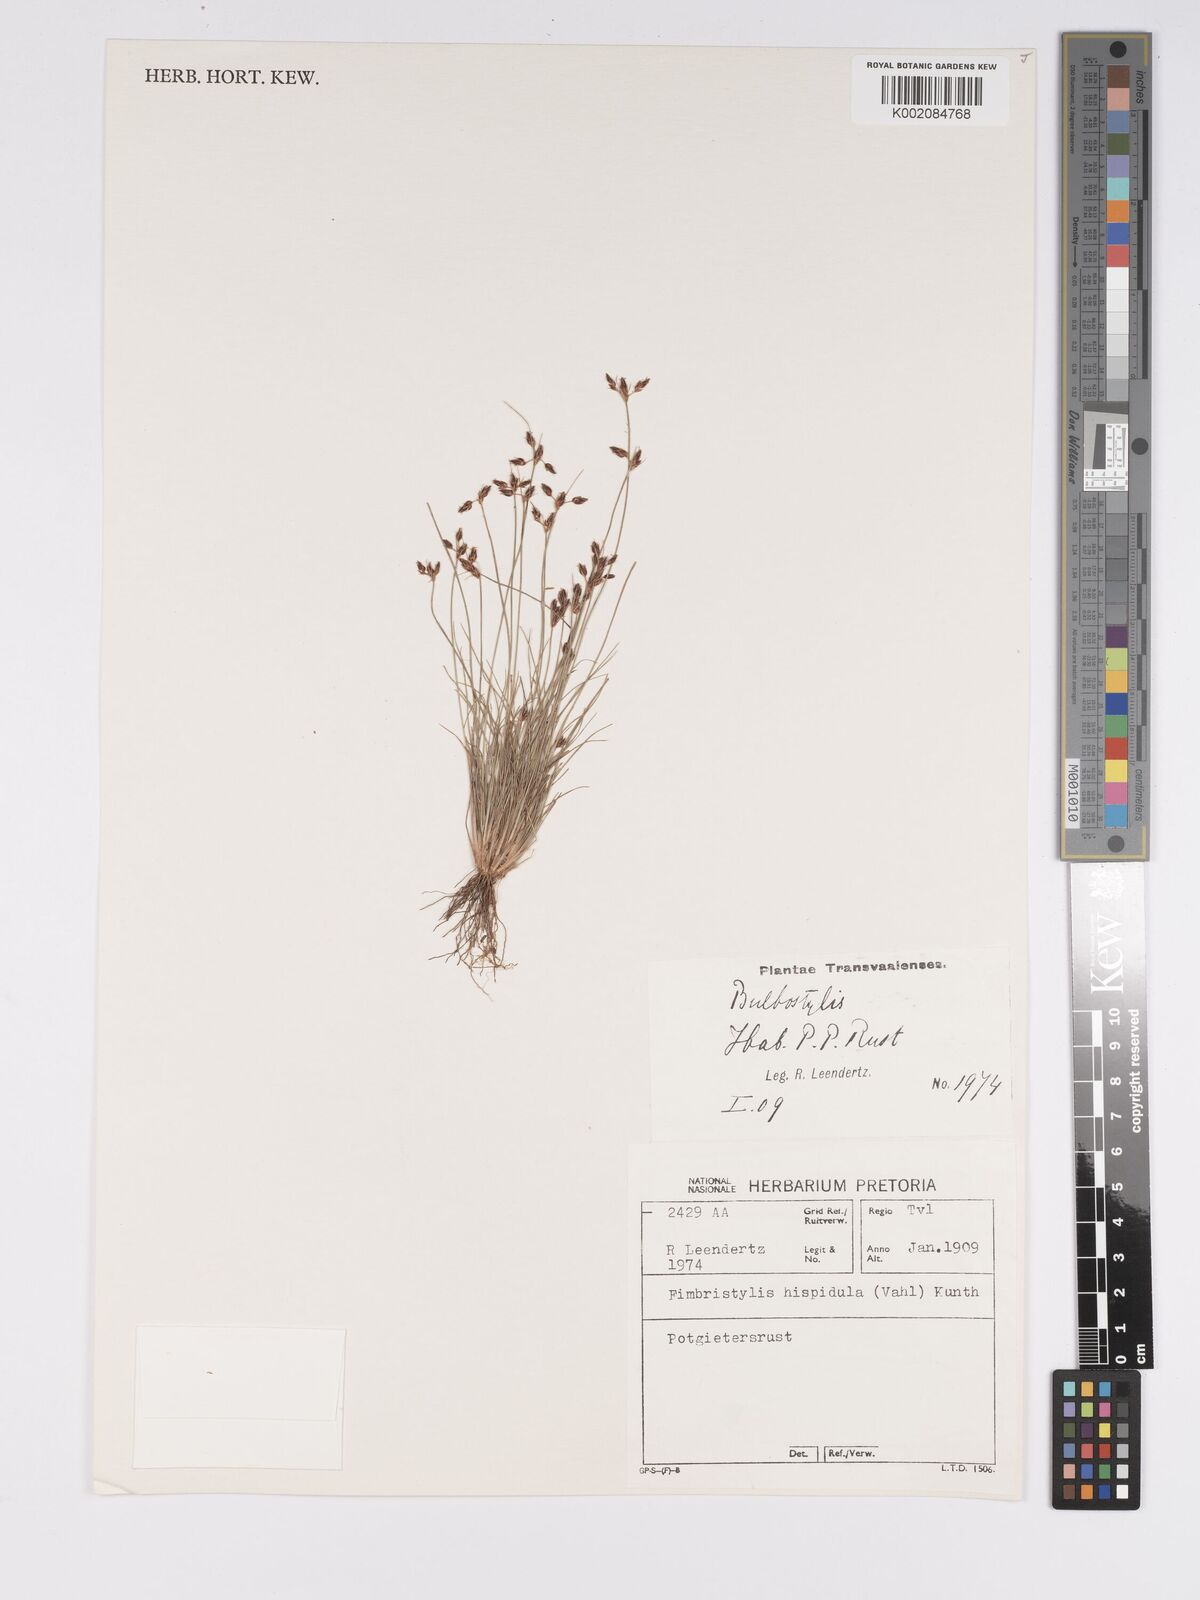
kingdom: Plantae
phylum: Tracheophyta
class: Liliopsida
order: Poales
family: Cyperaceae
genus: Bulbostylis
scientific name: Bulbostylis hispidula
